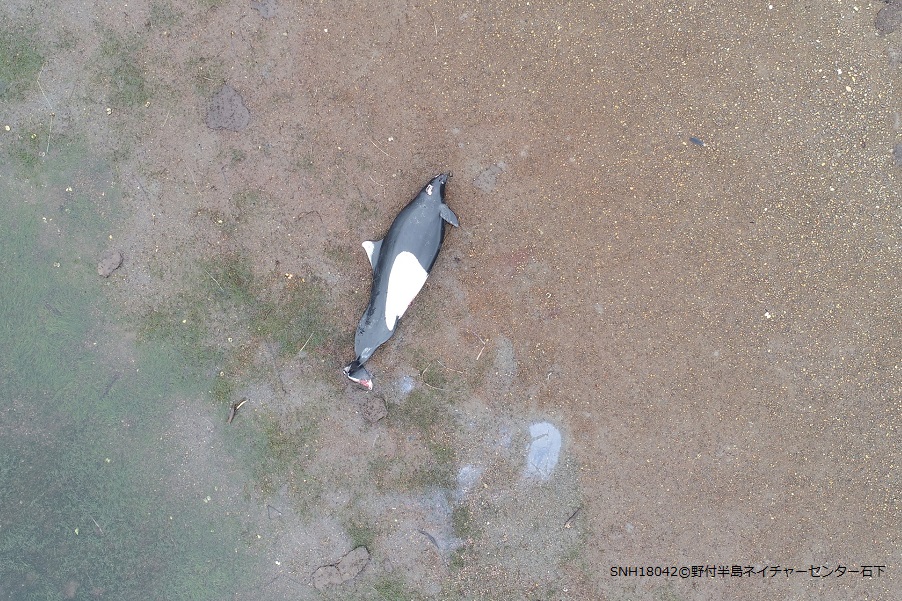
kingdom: Animalia
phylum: Chordata
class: Mammalia
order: Cetacea
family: Phocoenidae
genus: Phocoenoides
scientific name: Phocoenoides dalli
